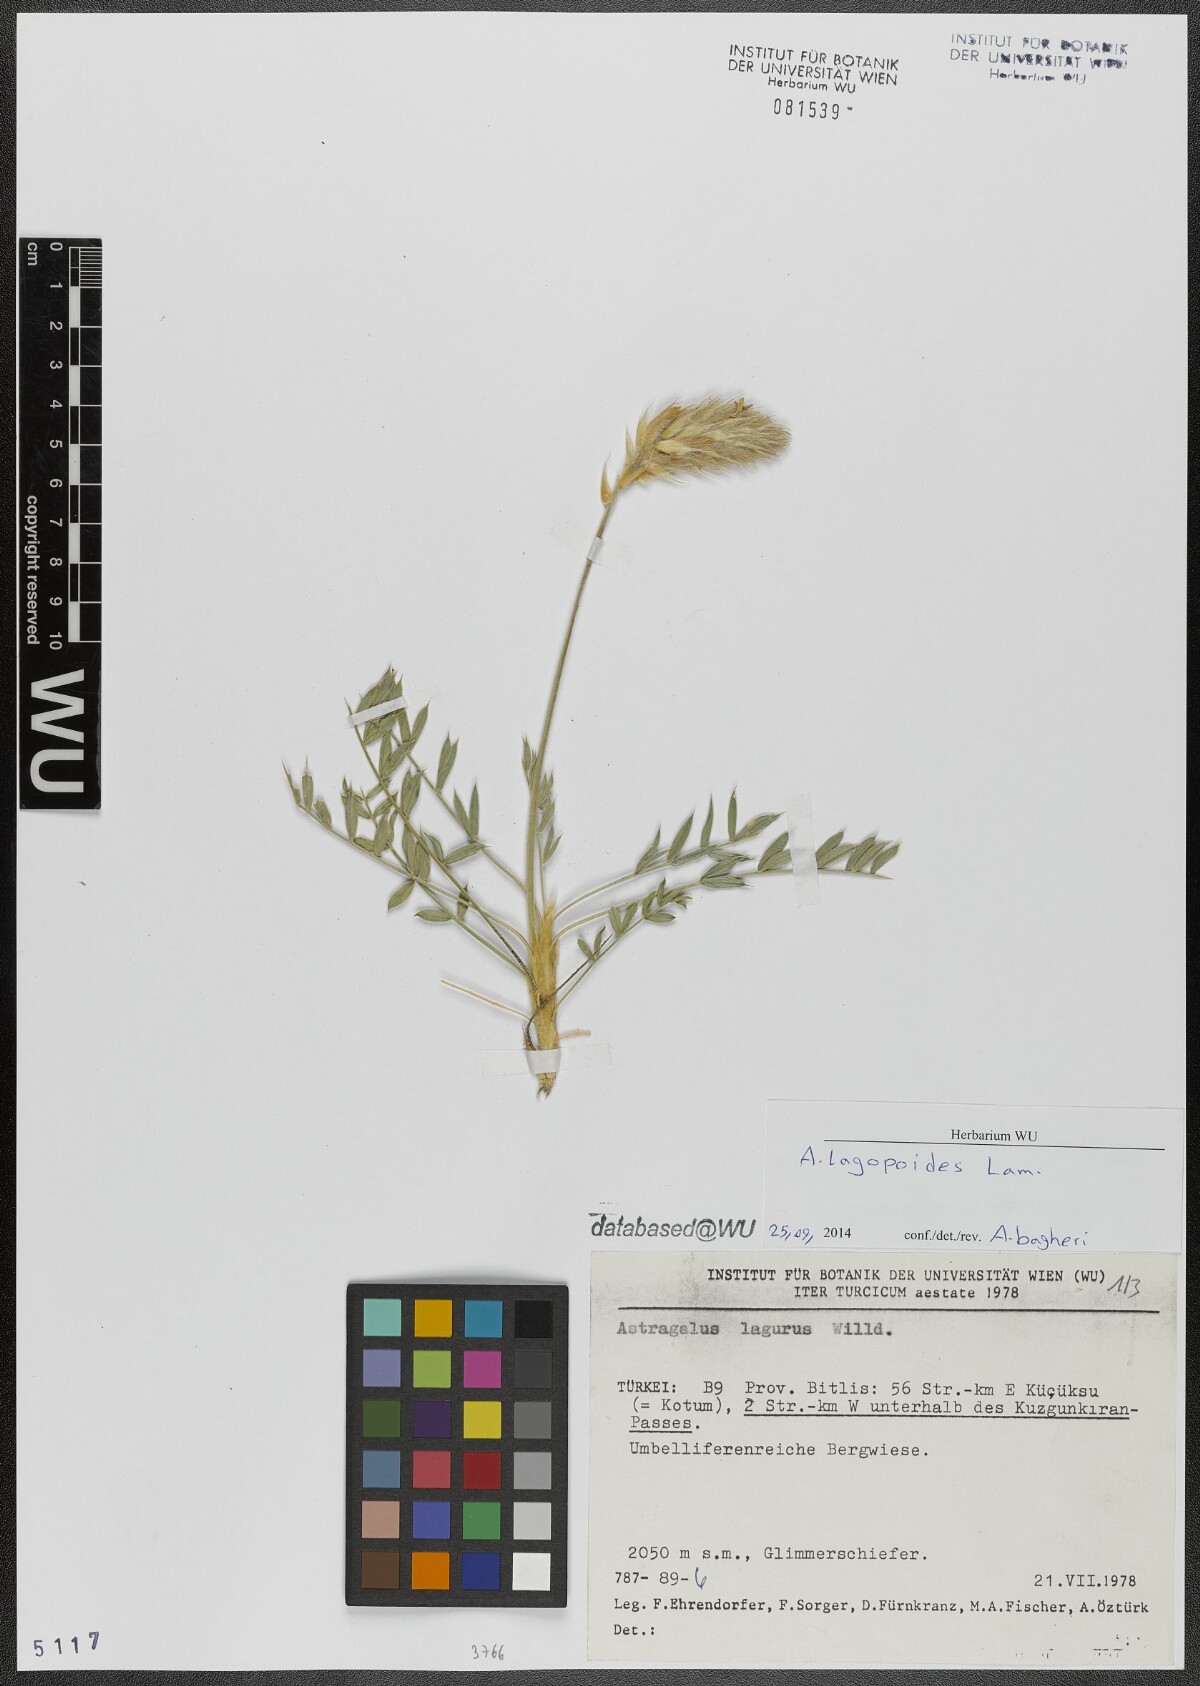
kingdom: Plantae
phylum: Tracheophyta
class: Magnoliopsida
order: Fabales
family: Fabaceae
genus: Astragalus
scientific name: Astragalus lagopoides
